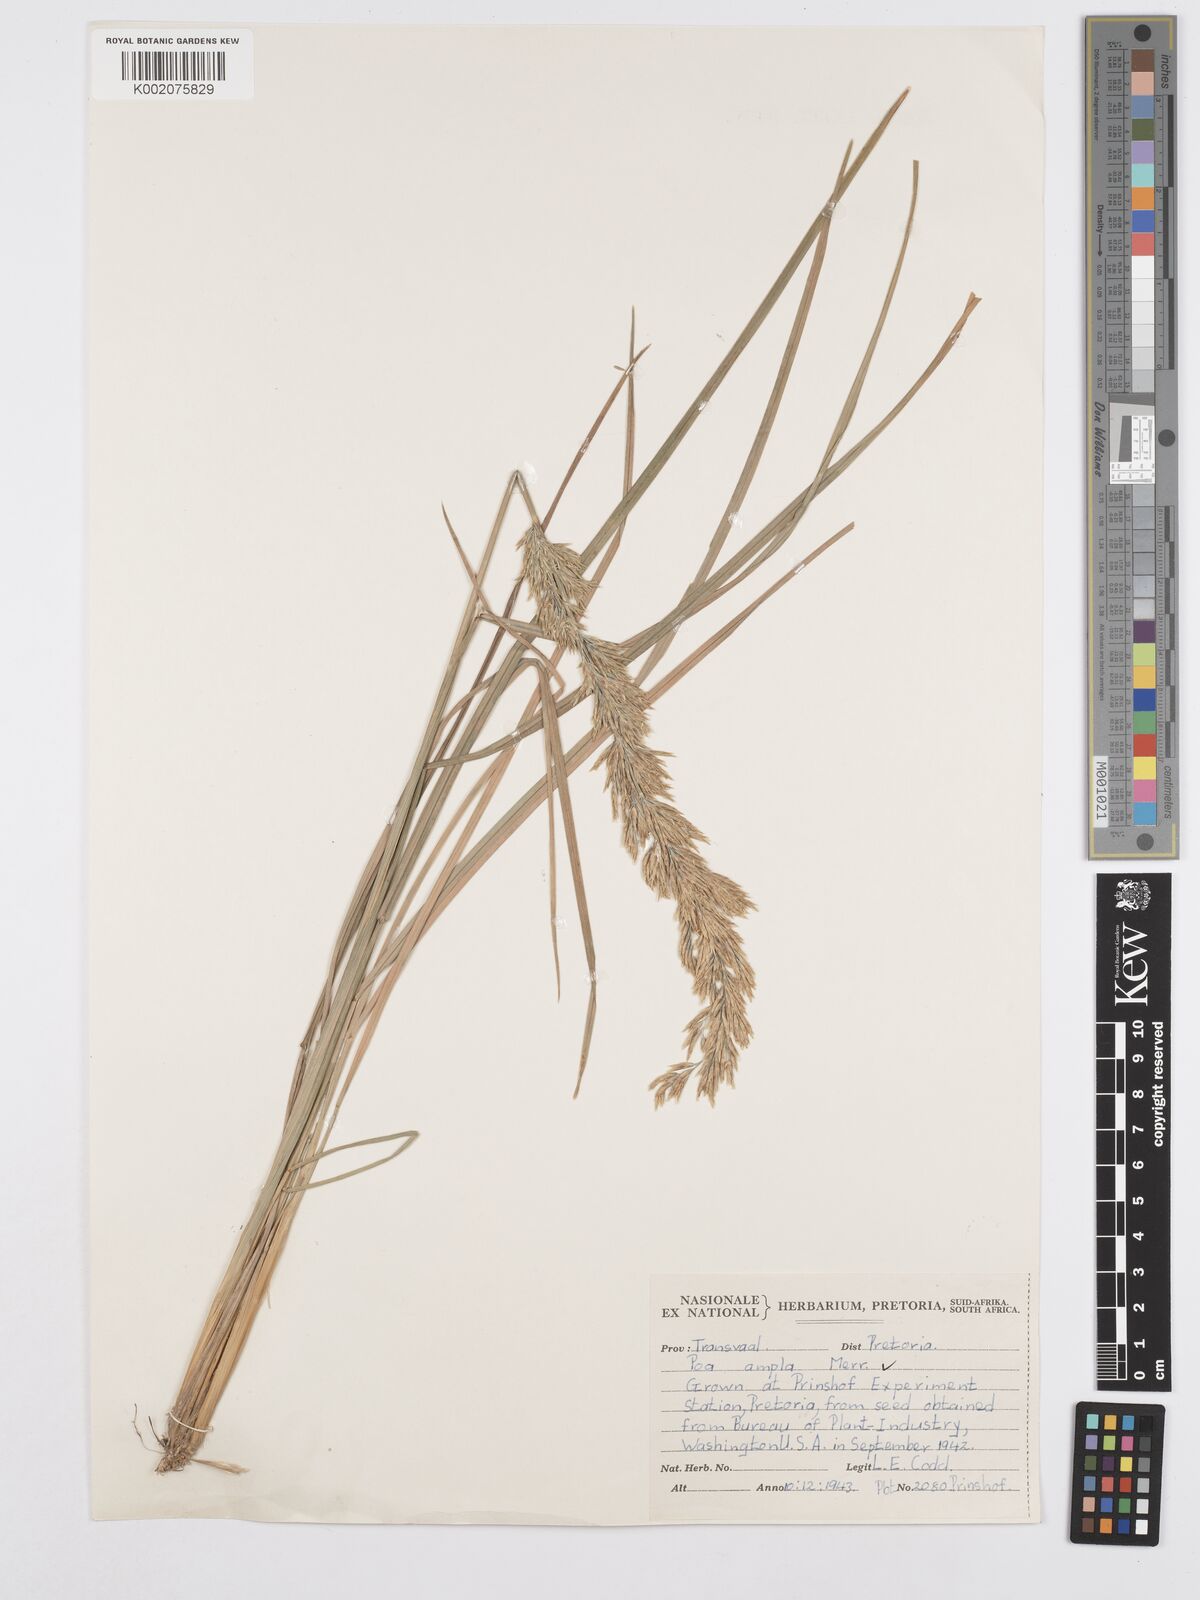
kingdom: Plantae
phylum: Tracheophyta
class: Liliopsida
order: Poales
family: Poaceae
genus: Poa
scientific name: Poa secunda
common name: Sandberg bluegrass
